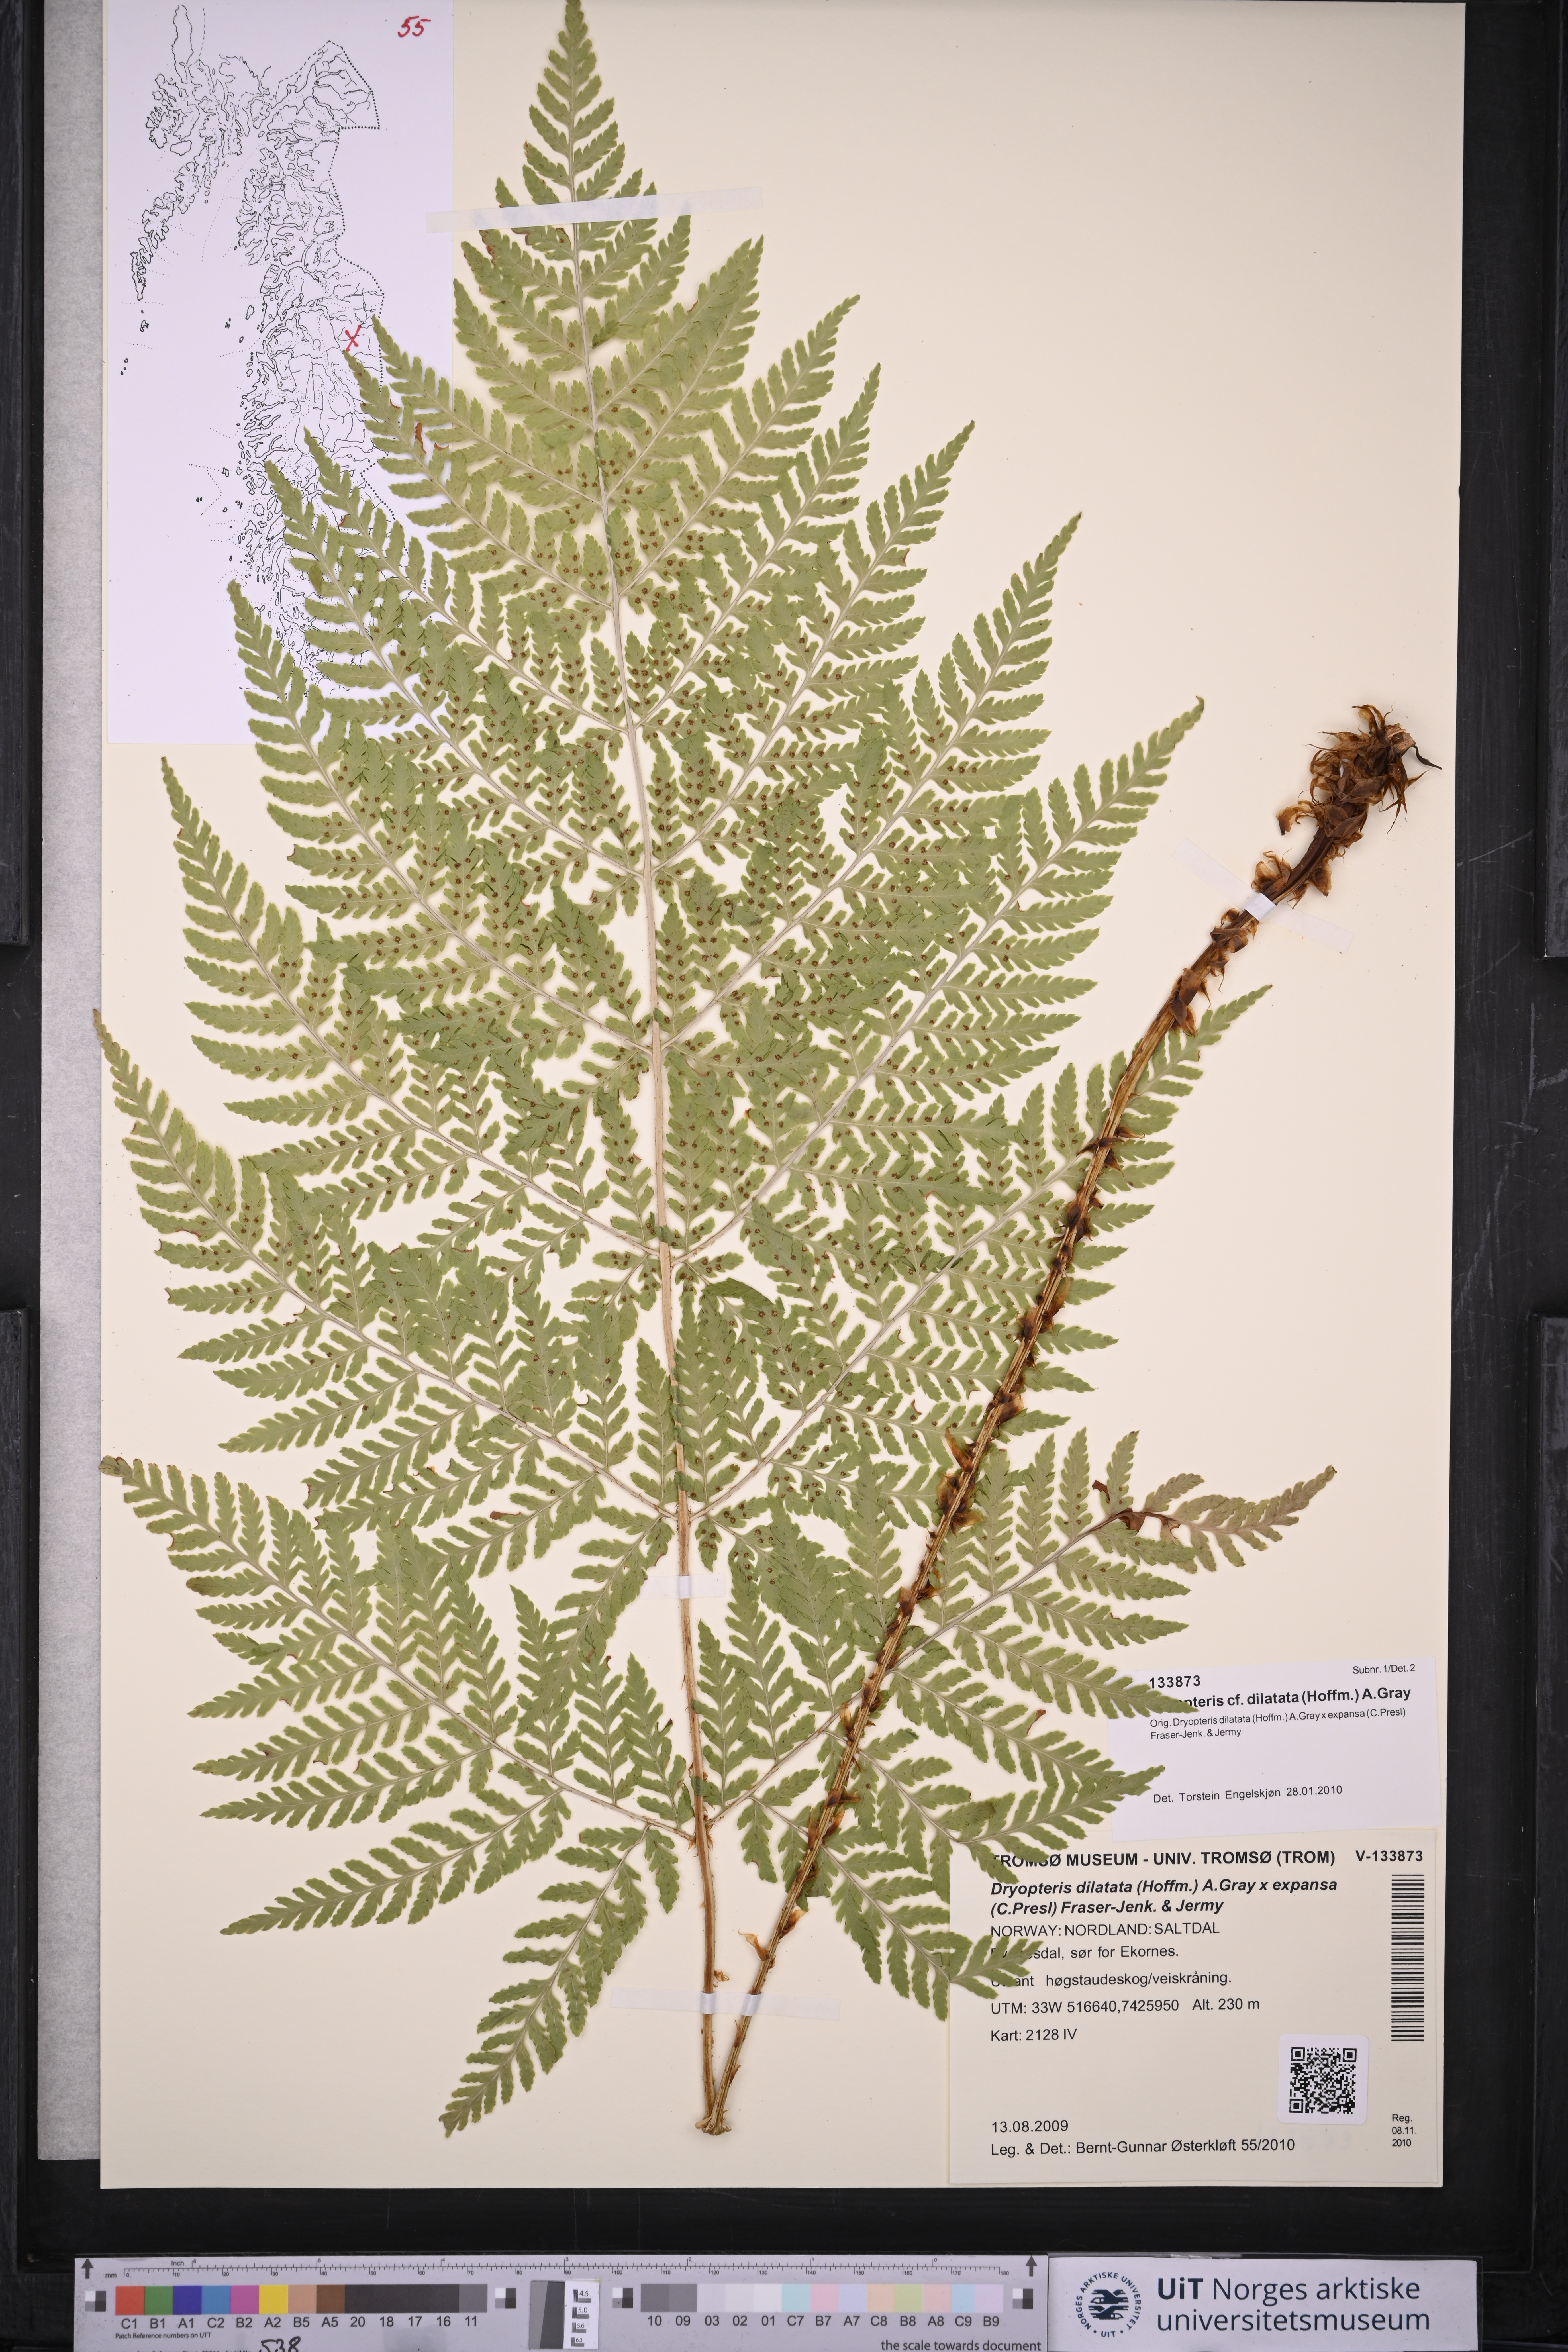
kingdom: Plantae
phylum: Tracheophyta
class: Polypodiopsida
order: Polypodiales
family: Dryopteridaceae
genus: Dryopteris
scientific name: Dryopteris dilatata
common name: Broad buckler-fern
